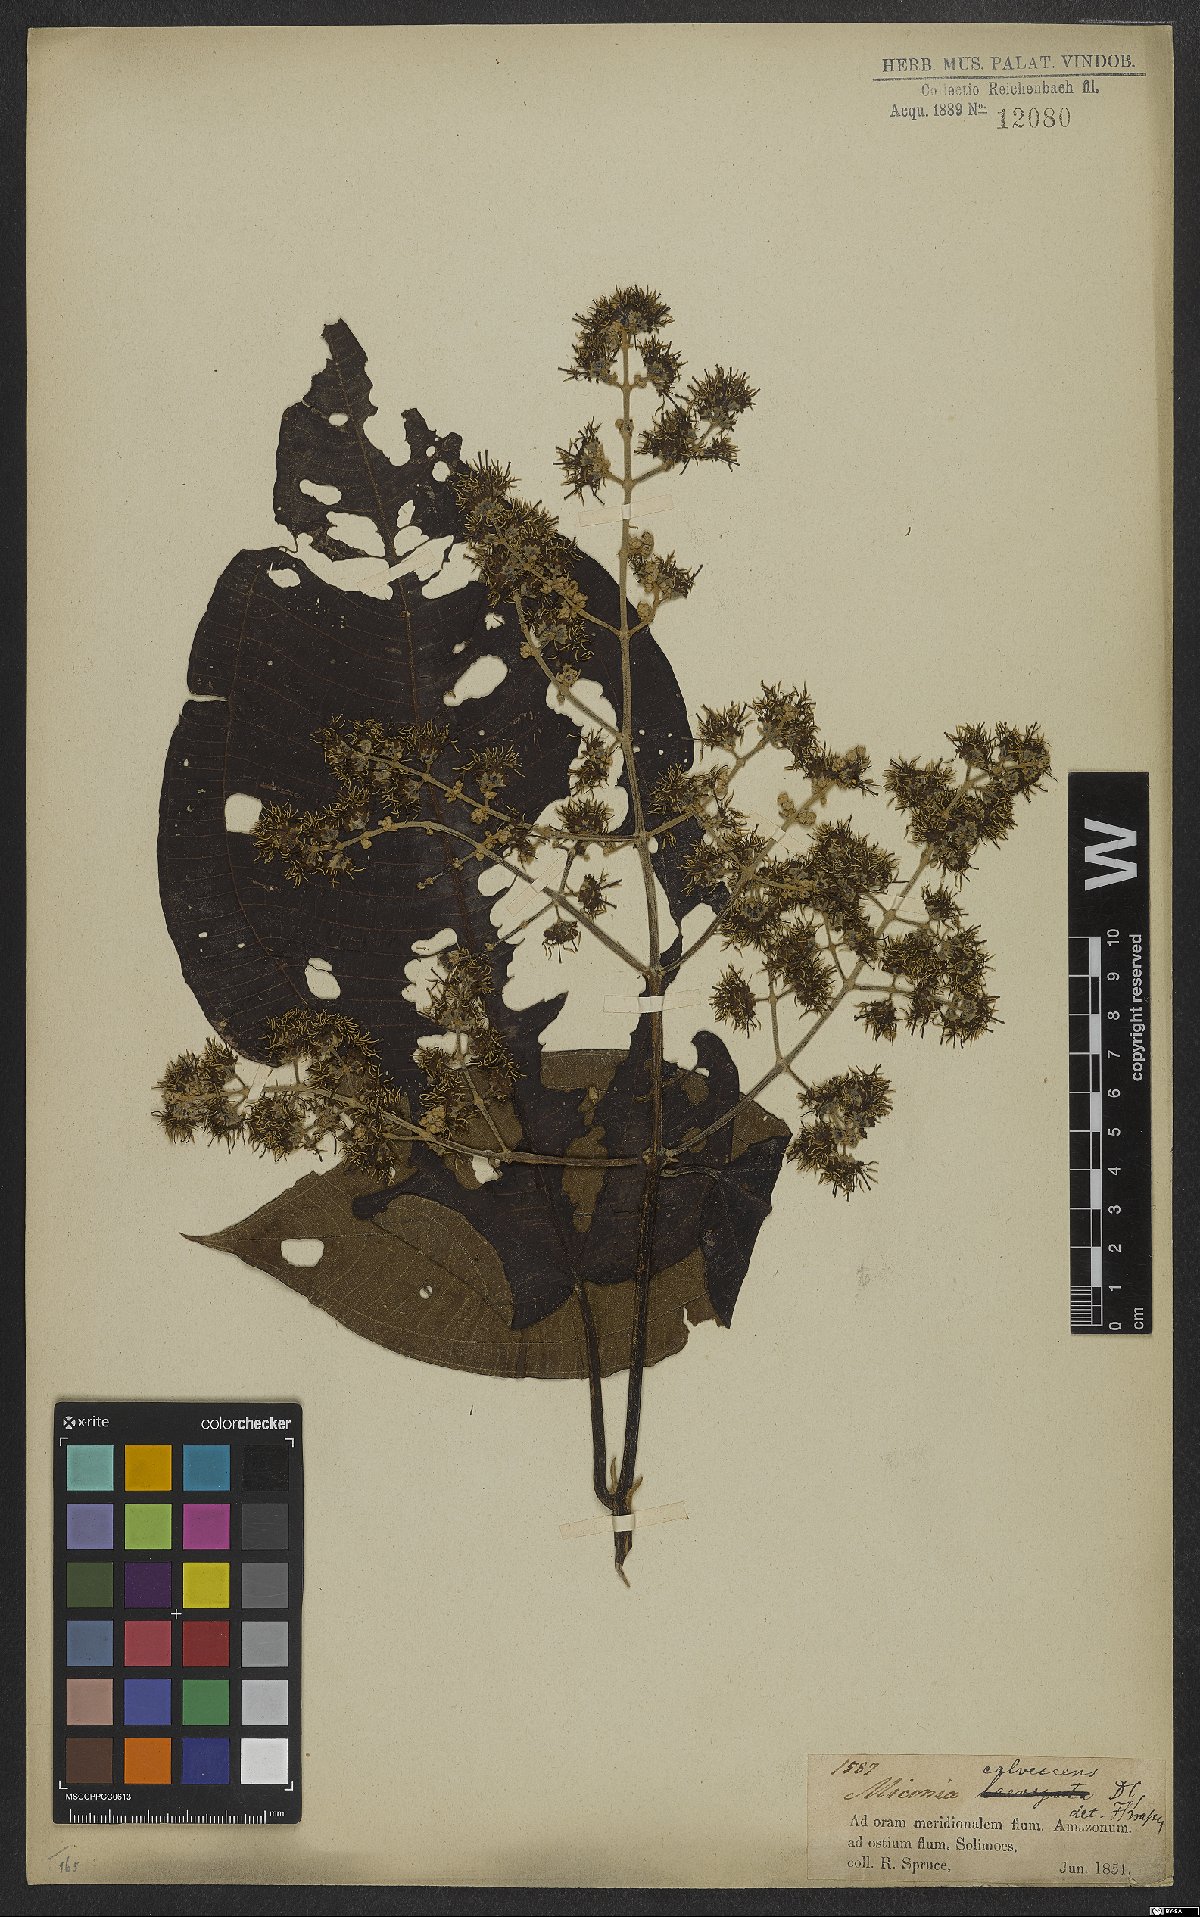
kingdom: Plantae
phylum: Tracheophyta
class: Magnoliopsida
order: Myrtales
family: Melastomataceae
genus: Miconia
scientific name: Miconia calvescens
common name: Purple plague
